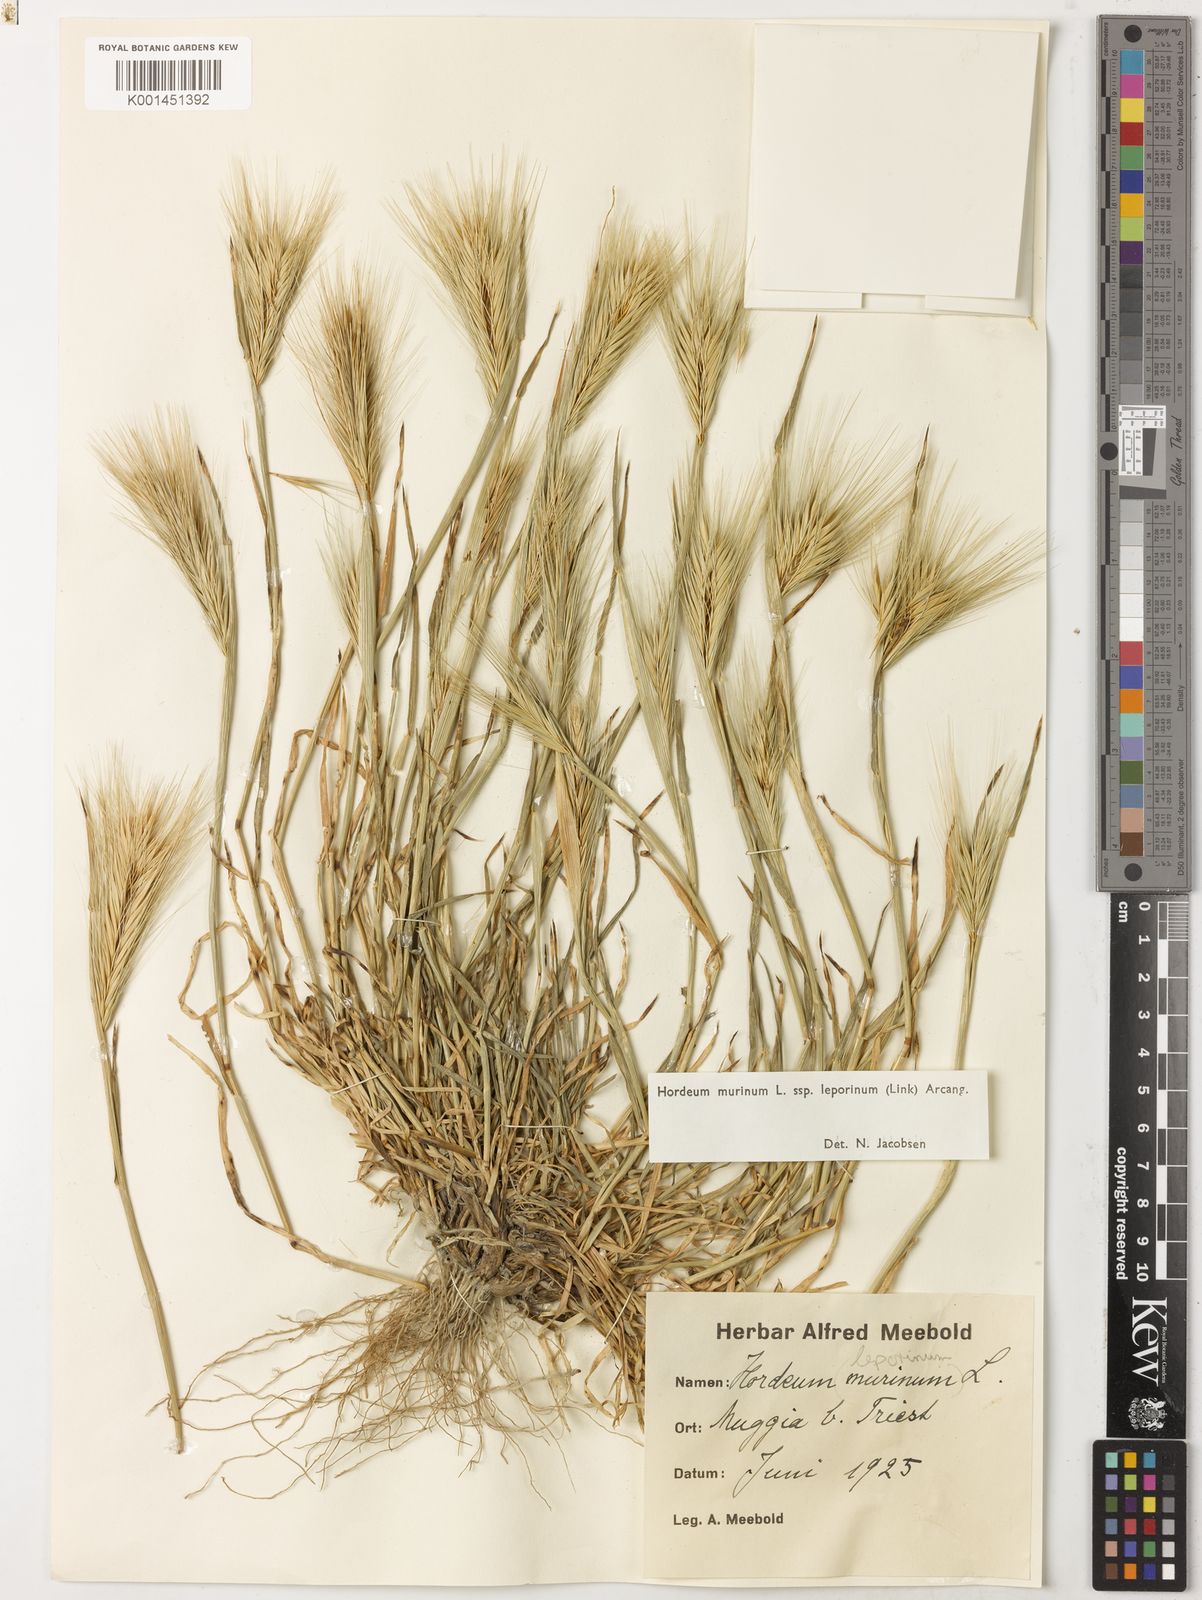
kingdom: Plantae
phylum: Tracheophyta
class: Liliopsida
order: Poales
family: Poaceae
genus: Hordeum
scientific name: Hordeum murinum
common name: Wall barley
